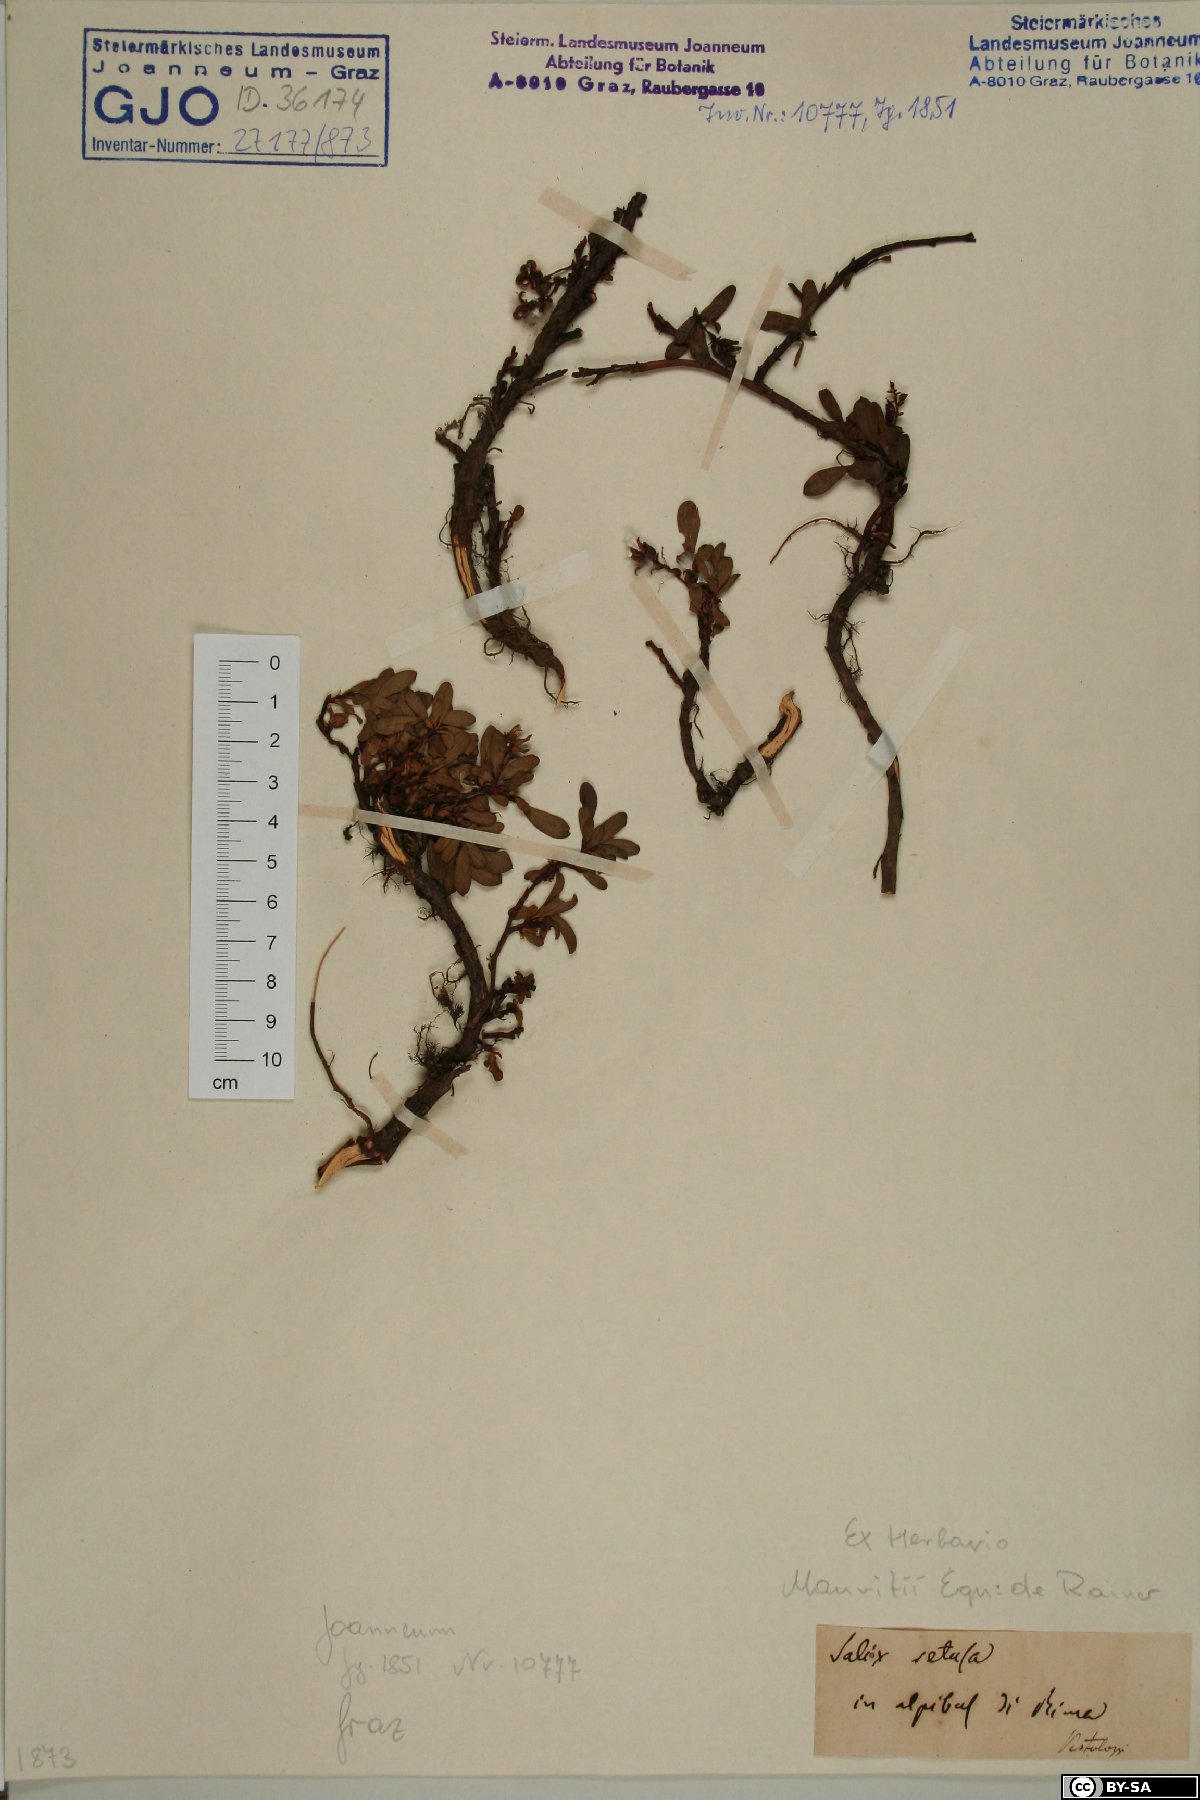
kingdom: Plantae
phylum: Tracheophyta
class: Magnoliopsida
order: Malpighiales
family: Salicaceae
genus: Salix
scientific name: Salix retusa
